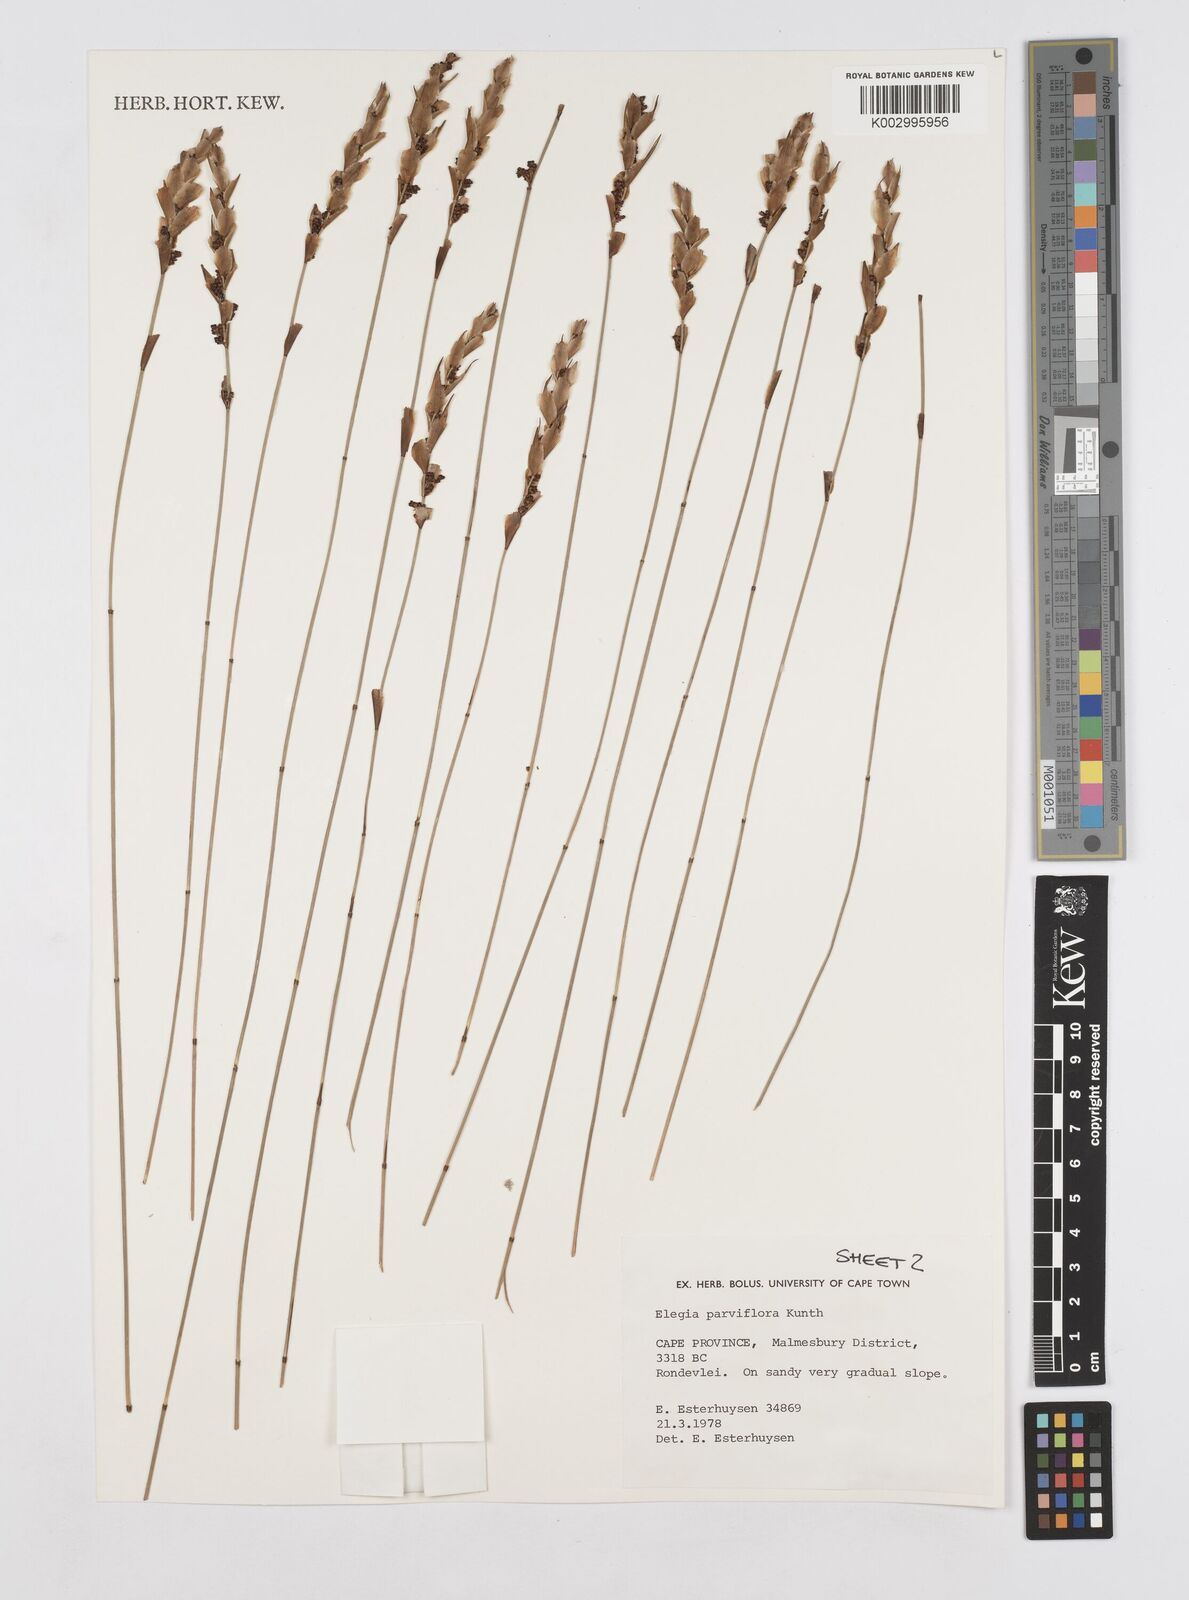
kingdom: Plantae
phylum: Tracheophyta
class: Liliopsida
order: Poales
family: Restionaceae
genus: Cannomois
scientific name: Cannomois parviflora
